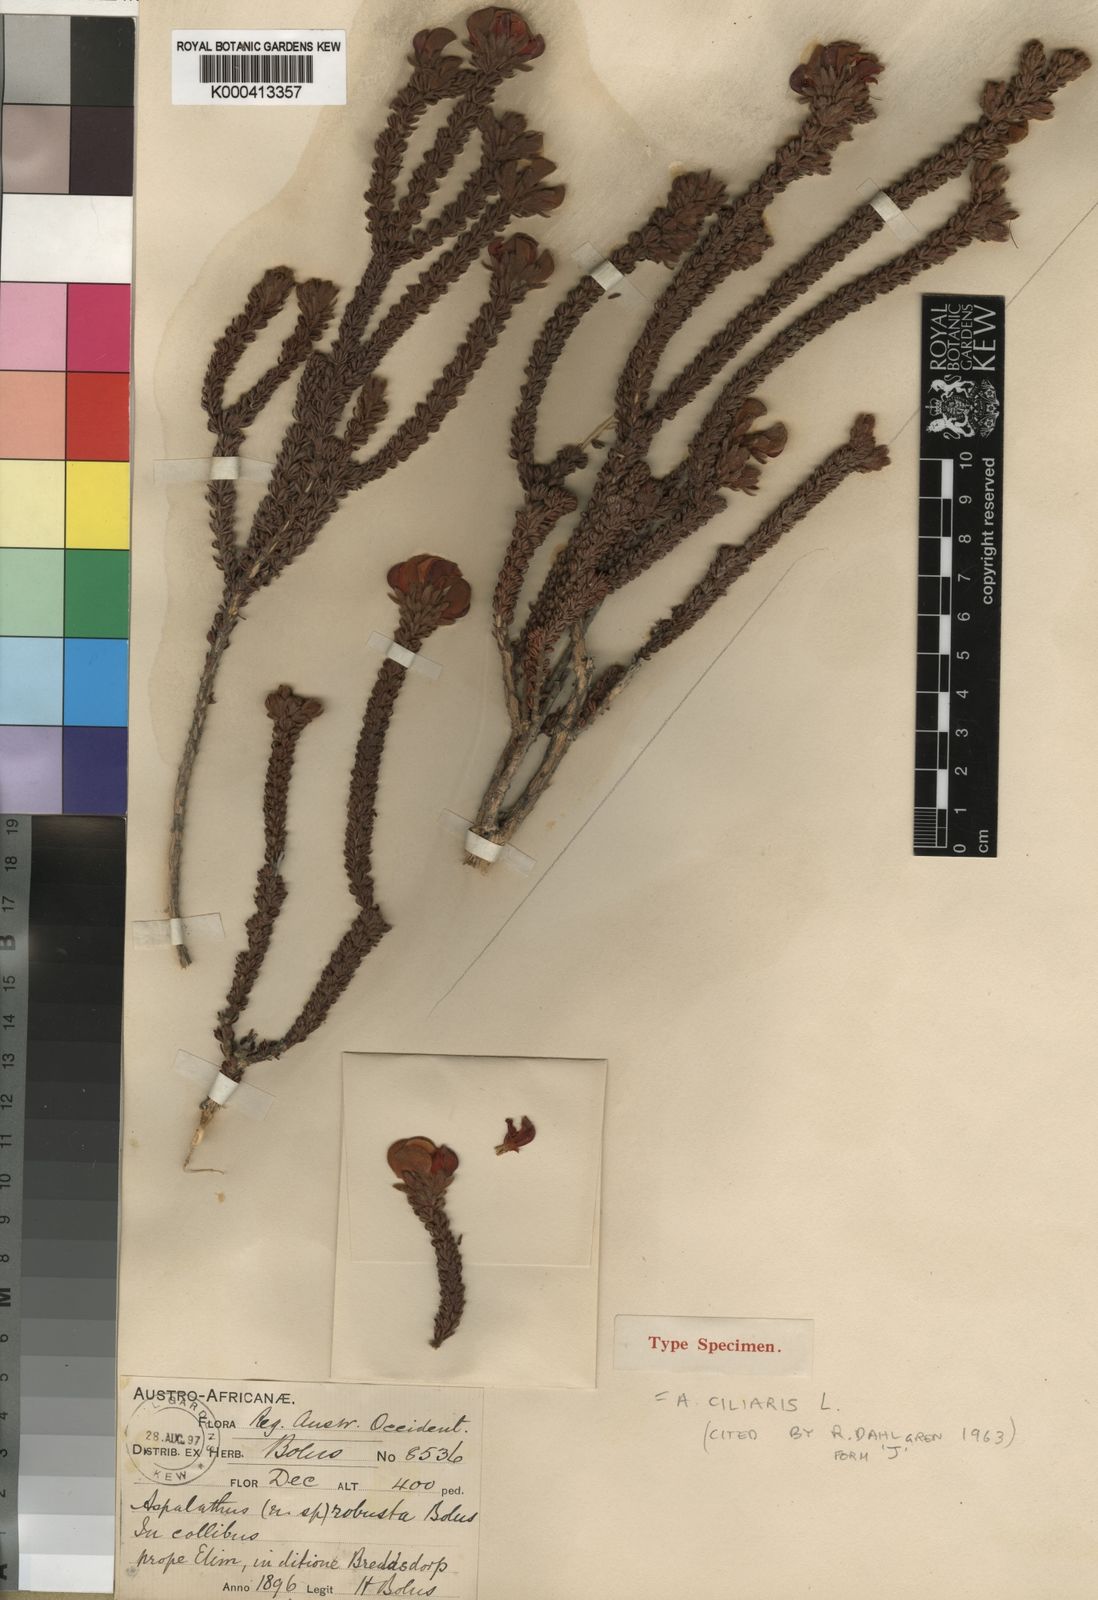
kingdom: Plantae
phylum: Tracheophyta
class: Magnoliopsida
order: Fabales
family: Fabaceae
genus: Aspalathus
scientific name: Aspalathus ciliaris
